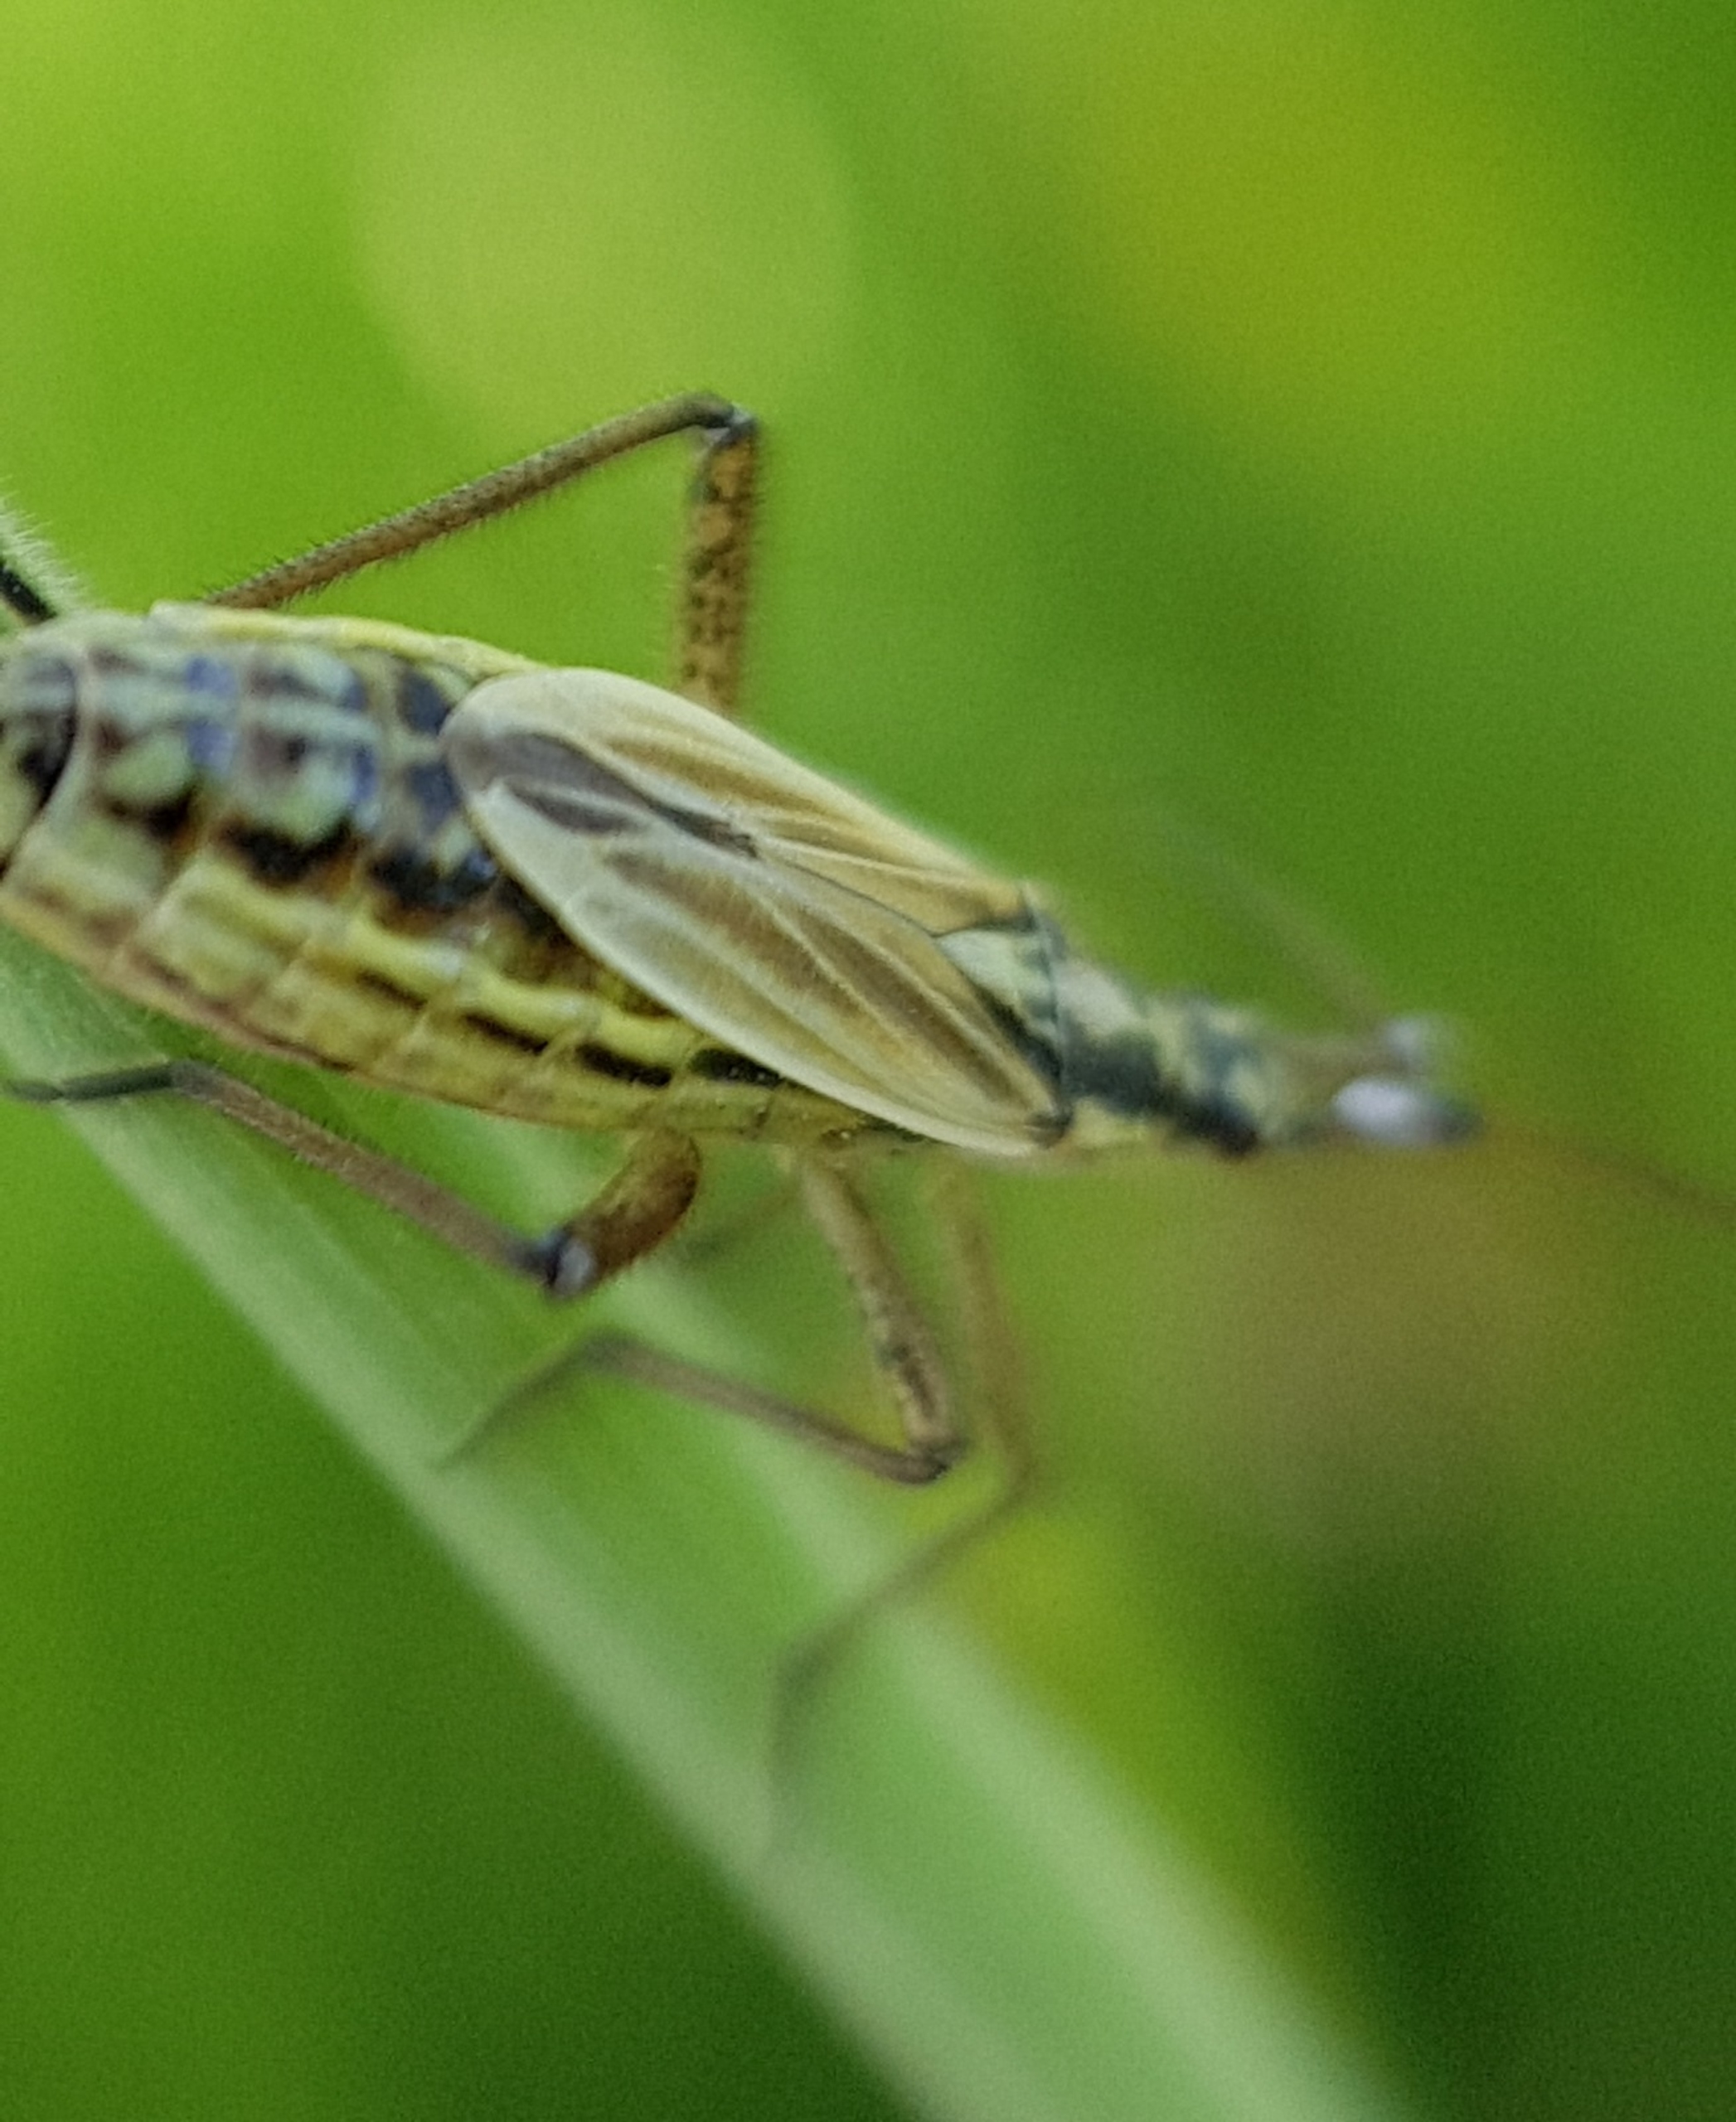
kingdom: Animalia
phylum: Arthropoda
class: Insecta
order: Hemiptera
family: Miridae
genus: Leptopterna
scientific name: Leptopterna dolabrata
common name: Almindelig græstæge
